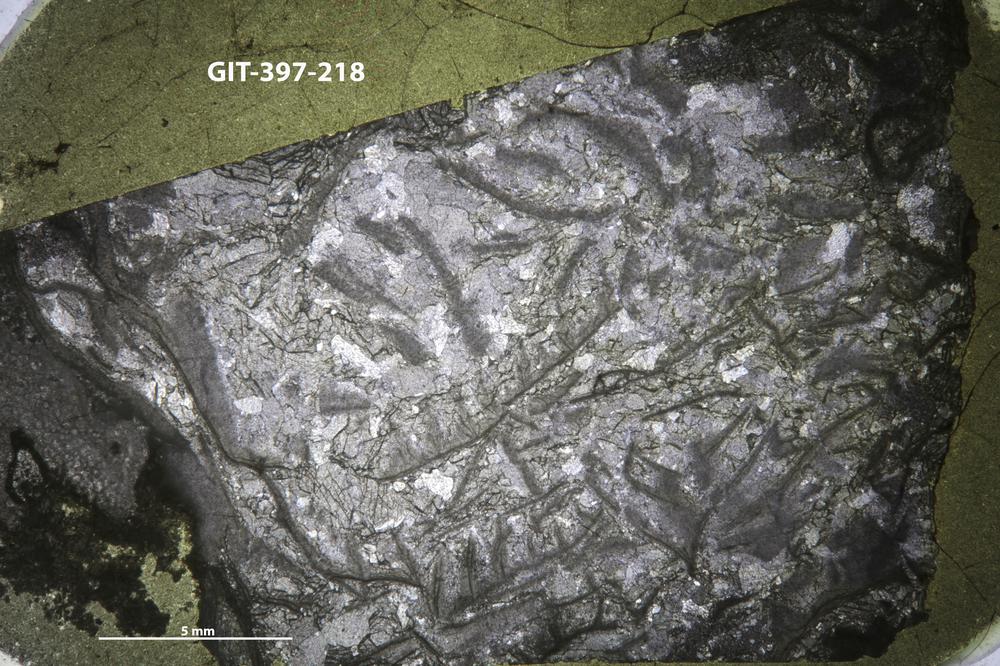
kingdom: Animalia
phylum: Cnidaria
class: Anthozoa
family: Ketophyllidae
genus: Dokophyllum
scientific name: Dokophyllum
